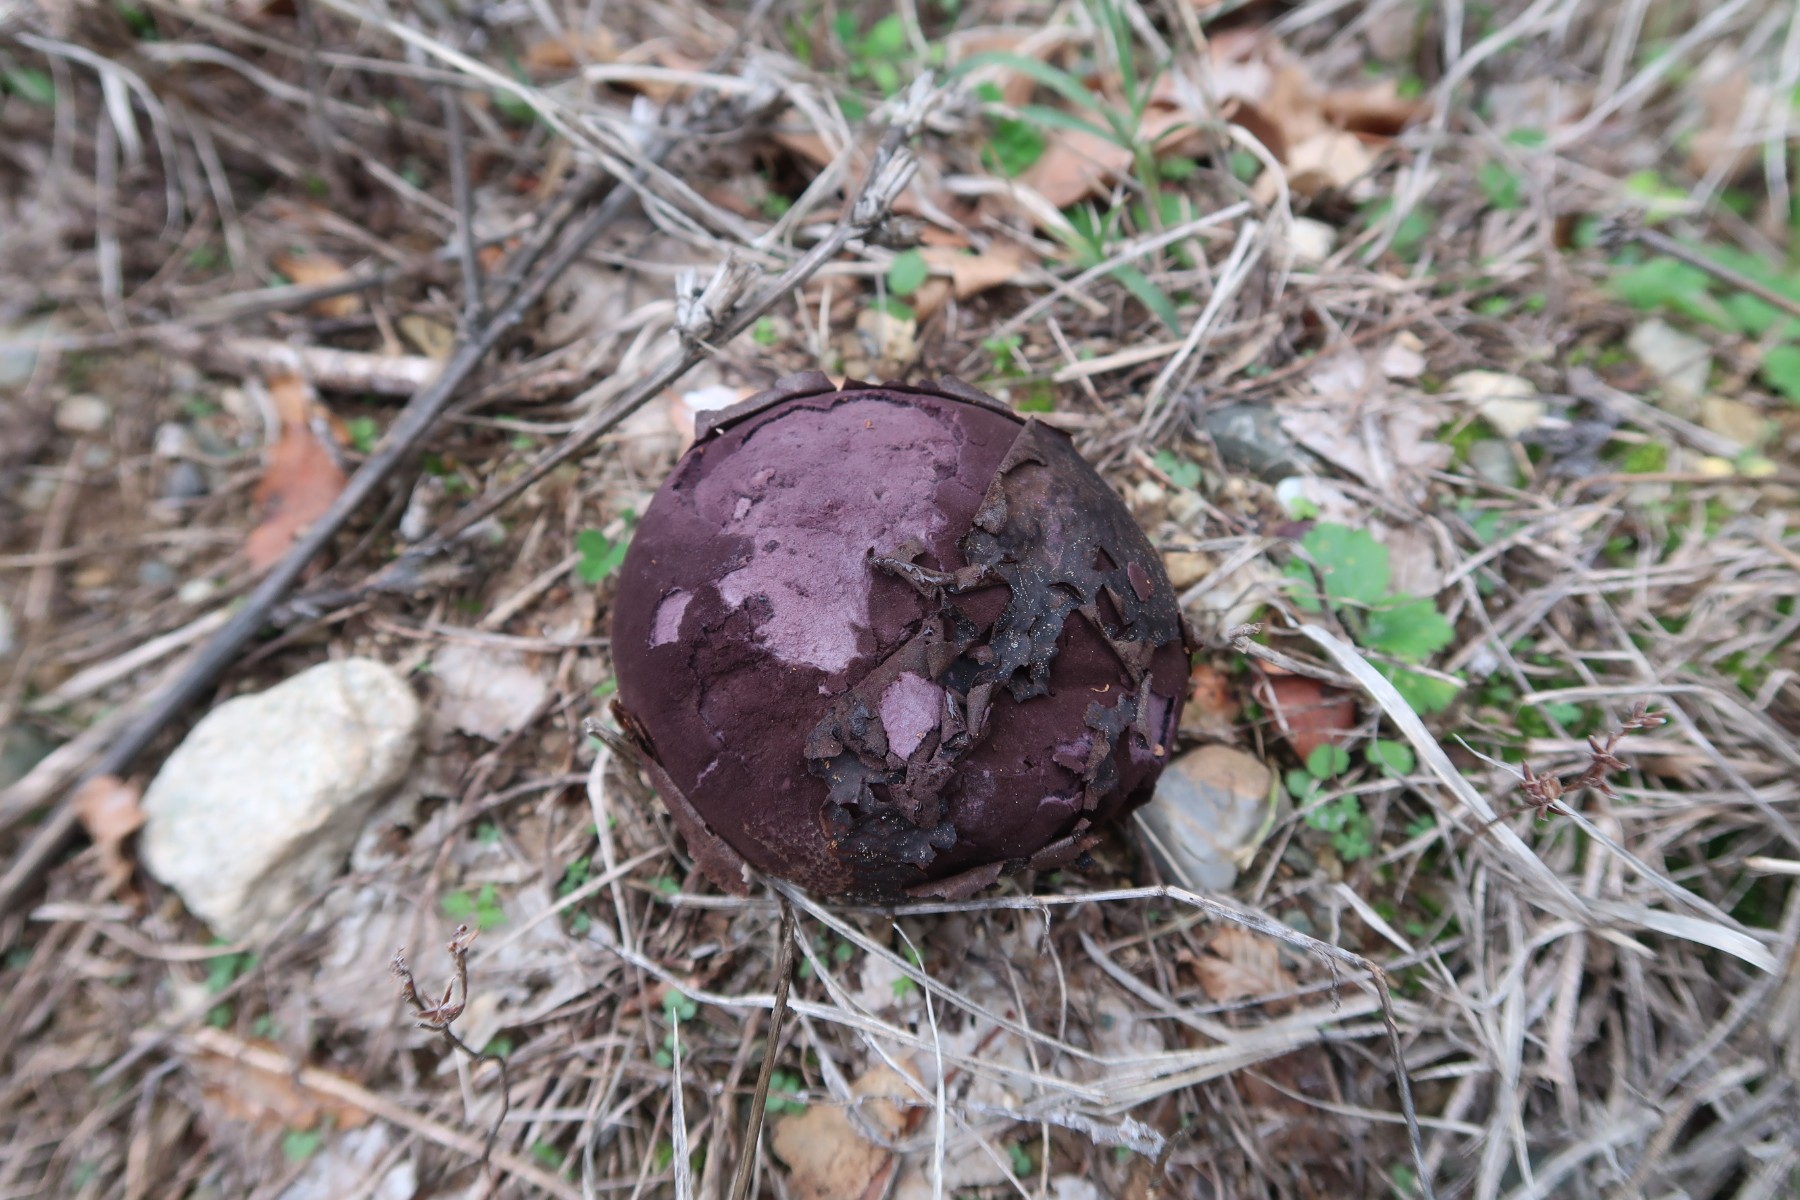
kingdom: Fungi
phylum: Basidiomycota
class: Agaricomycetes
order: Agaricales
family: Lycoperdaceae
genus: Calvatia
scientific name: Calvatia cyathiformis
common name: Purple-spored puffball
